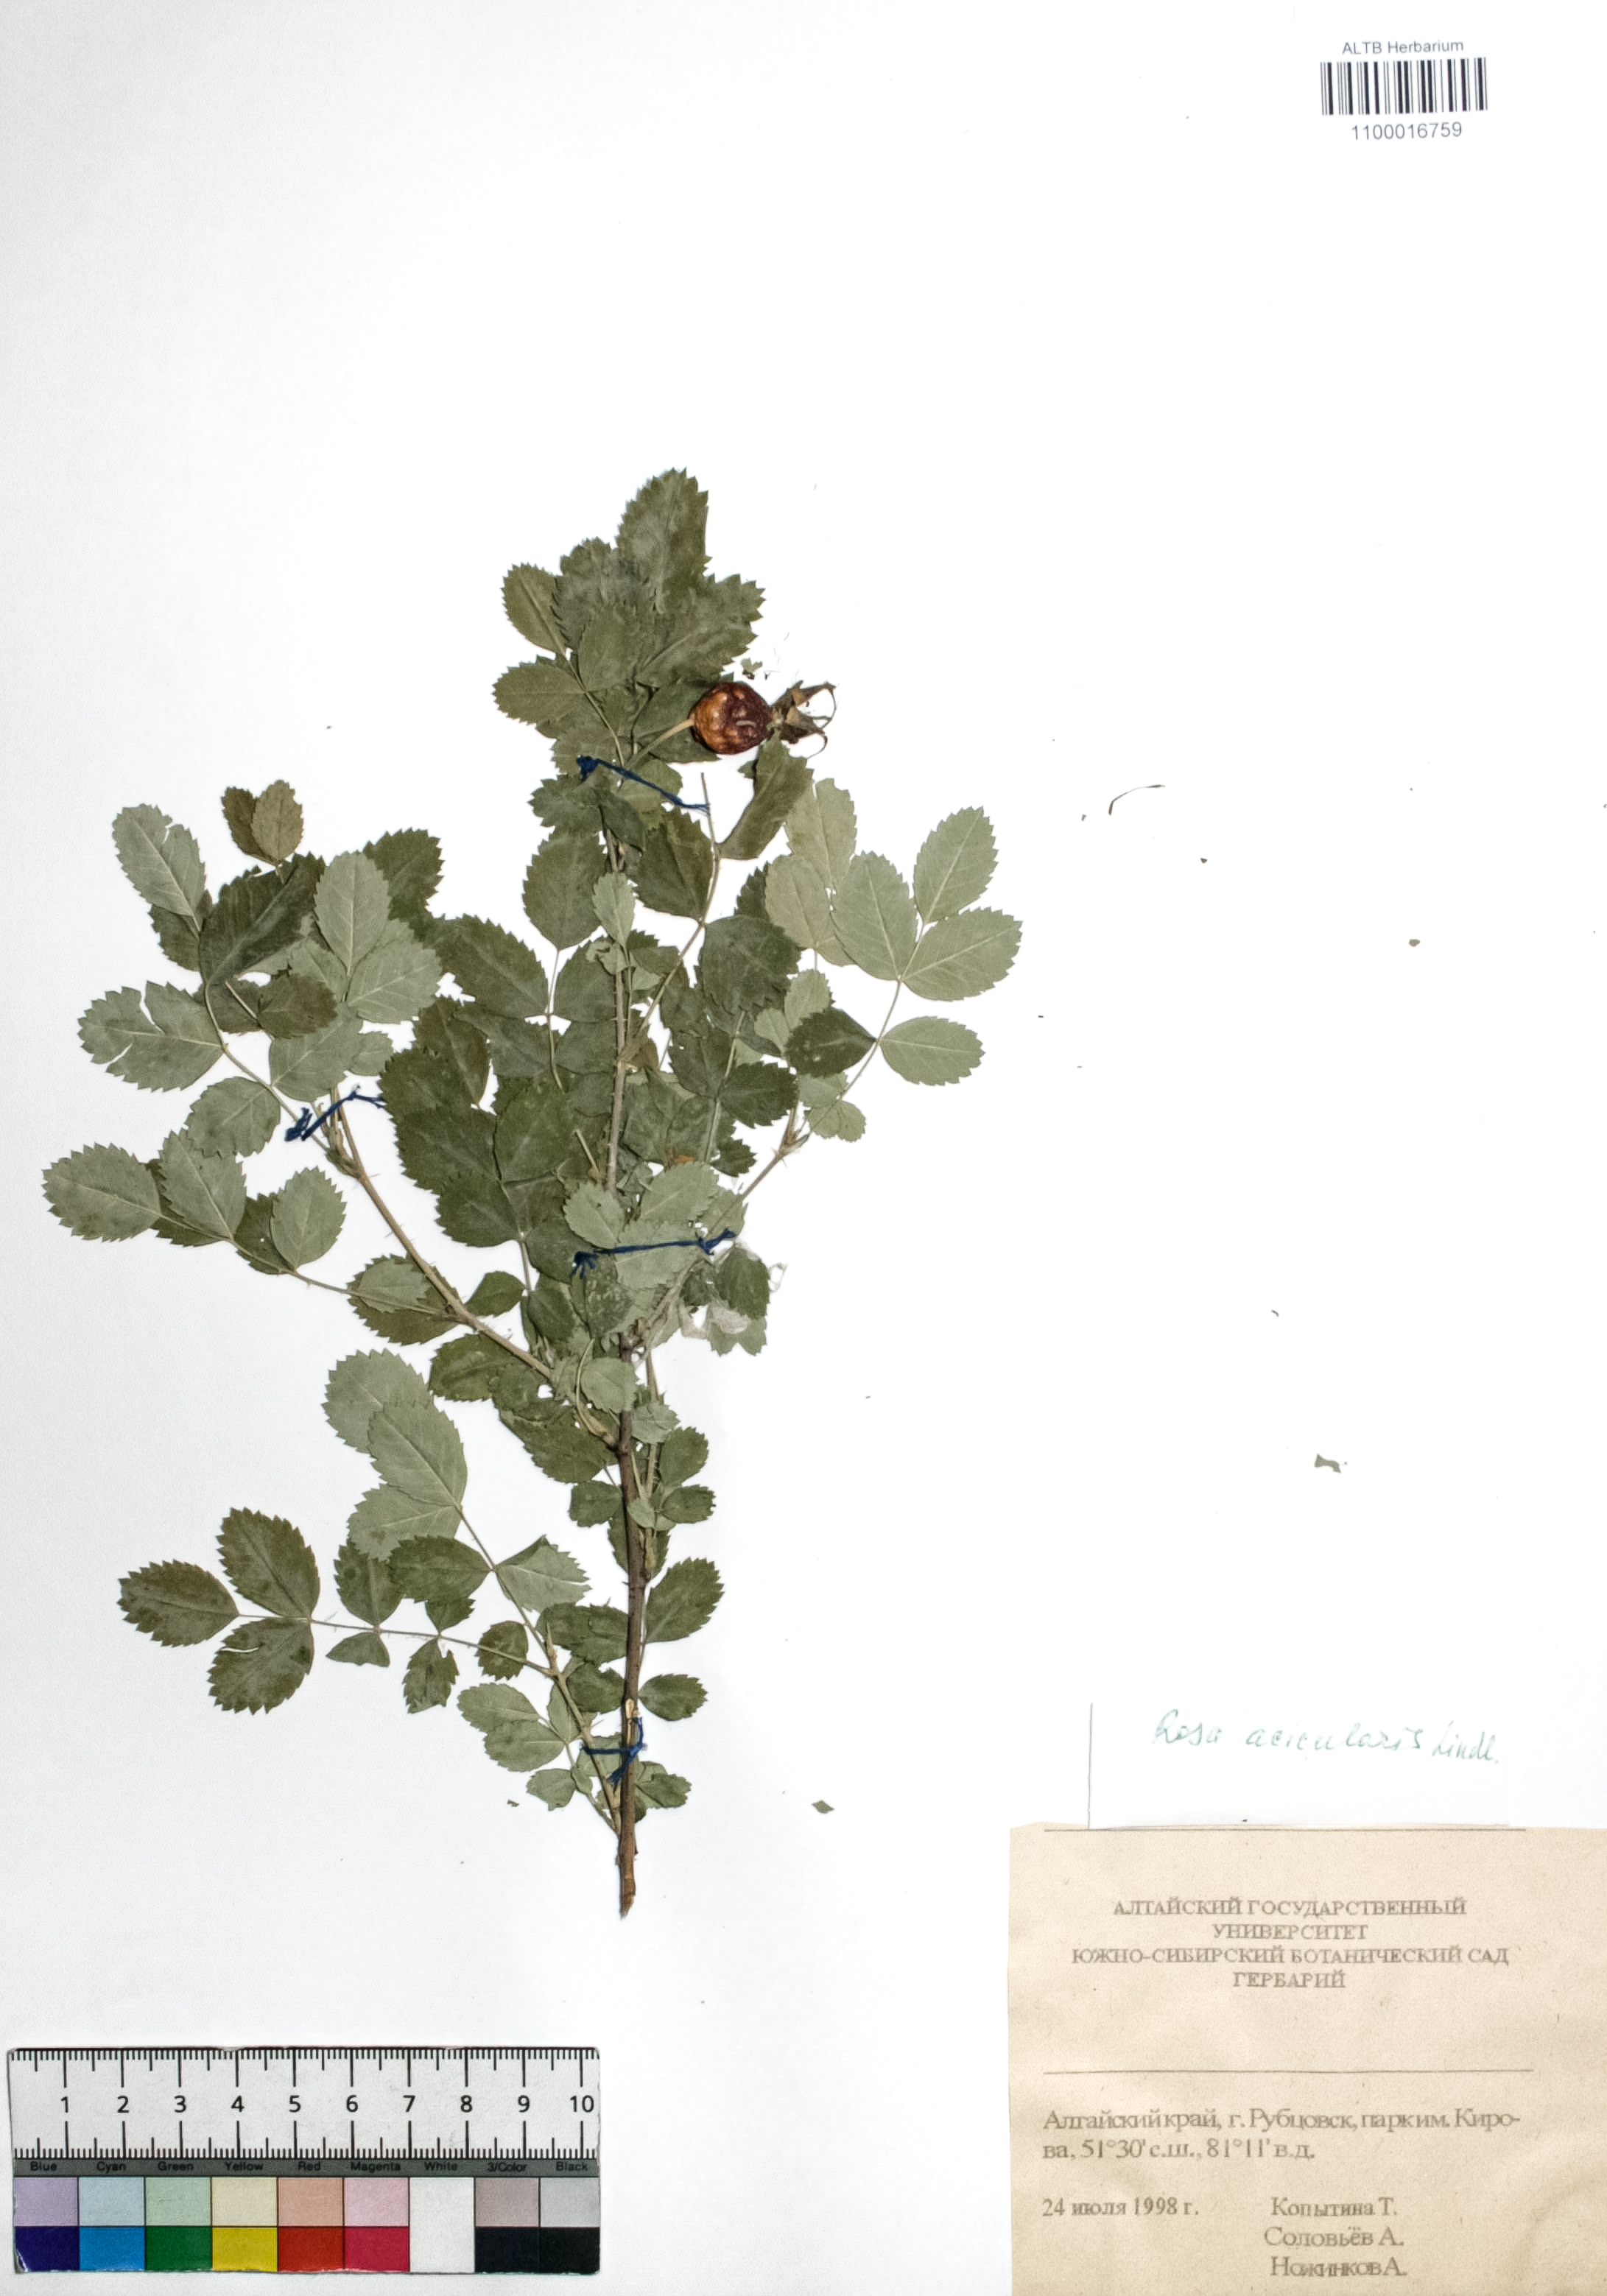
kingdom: Plantae
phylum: Tracheophyta
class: Magnoliopsida
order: Rosales
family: Rosaceae
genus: Rosa
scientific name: Rosa acicularis
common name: Prickly rose
